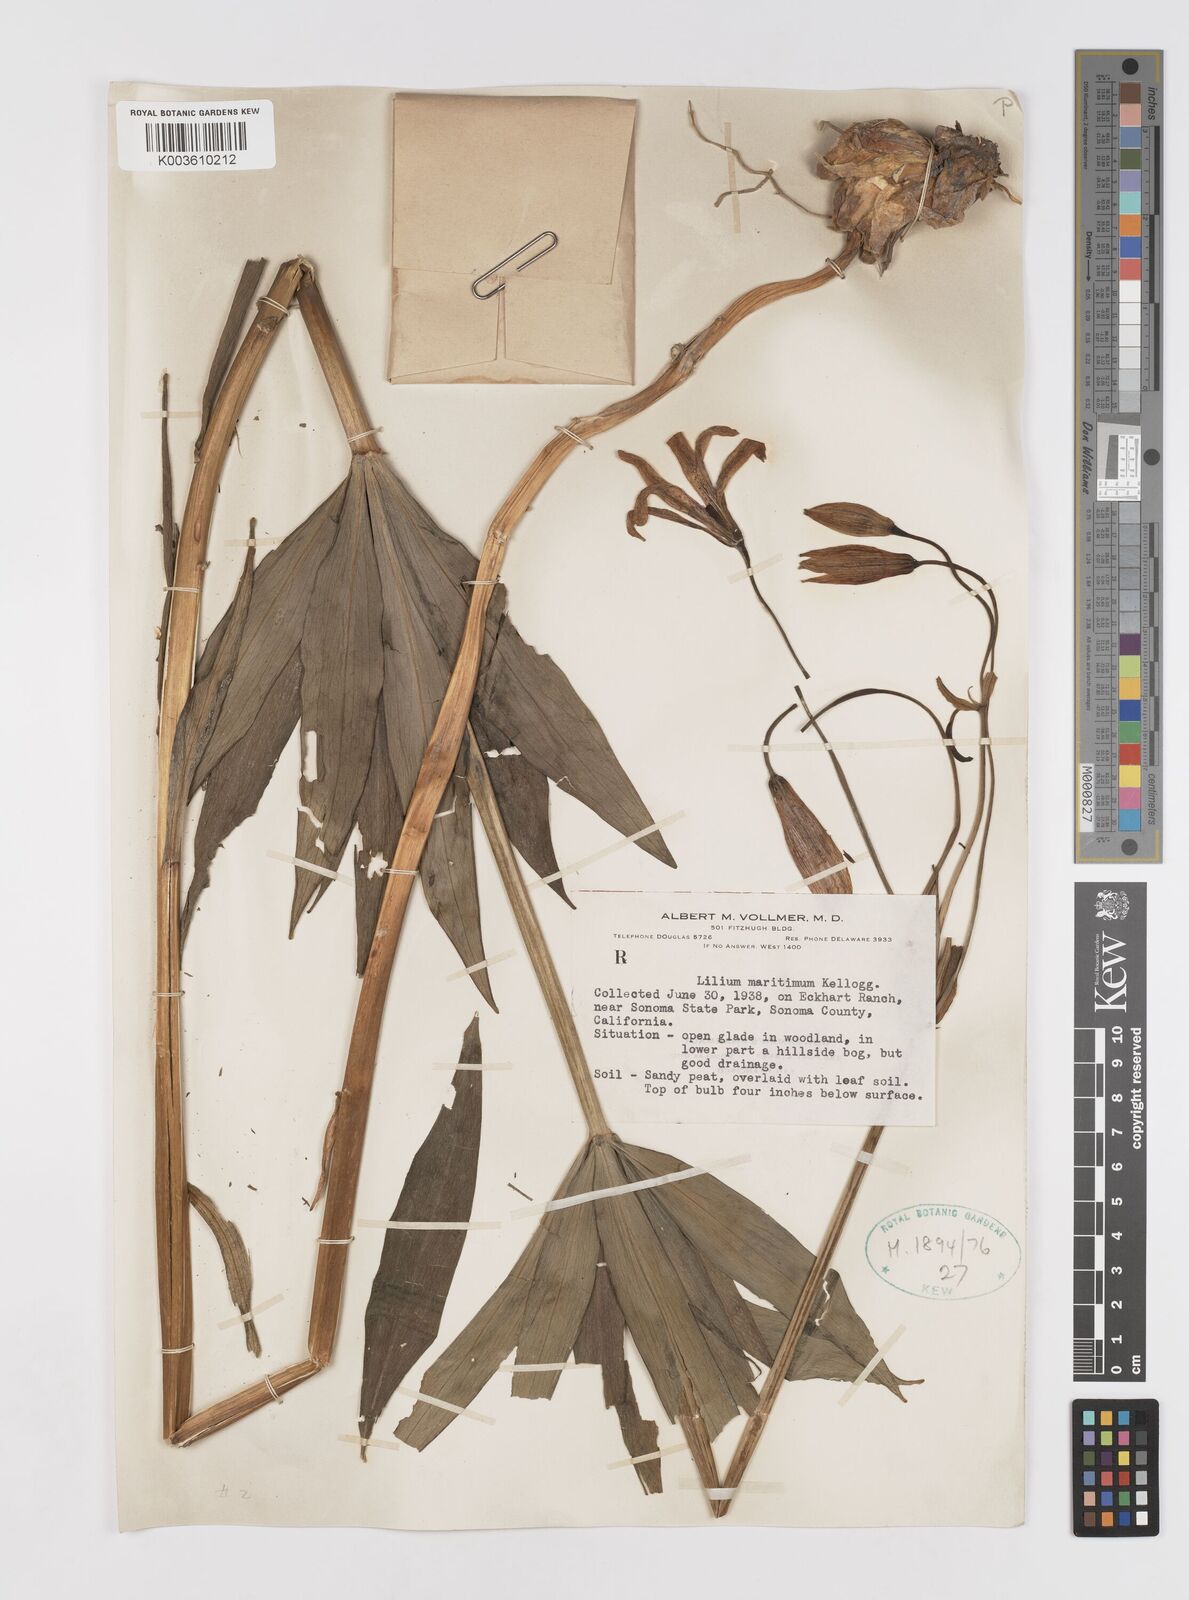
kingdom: Plantae
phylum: Tracheophyta
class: Liliopsida
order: Liliales
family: Liliaceae
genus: Lilium
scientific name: Lilium maritimum
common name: Coastal lily
